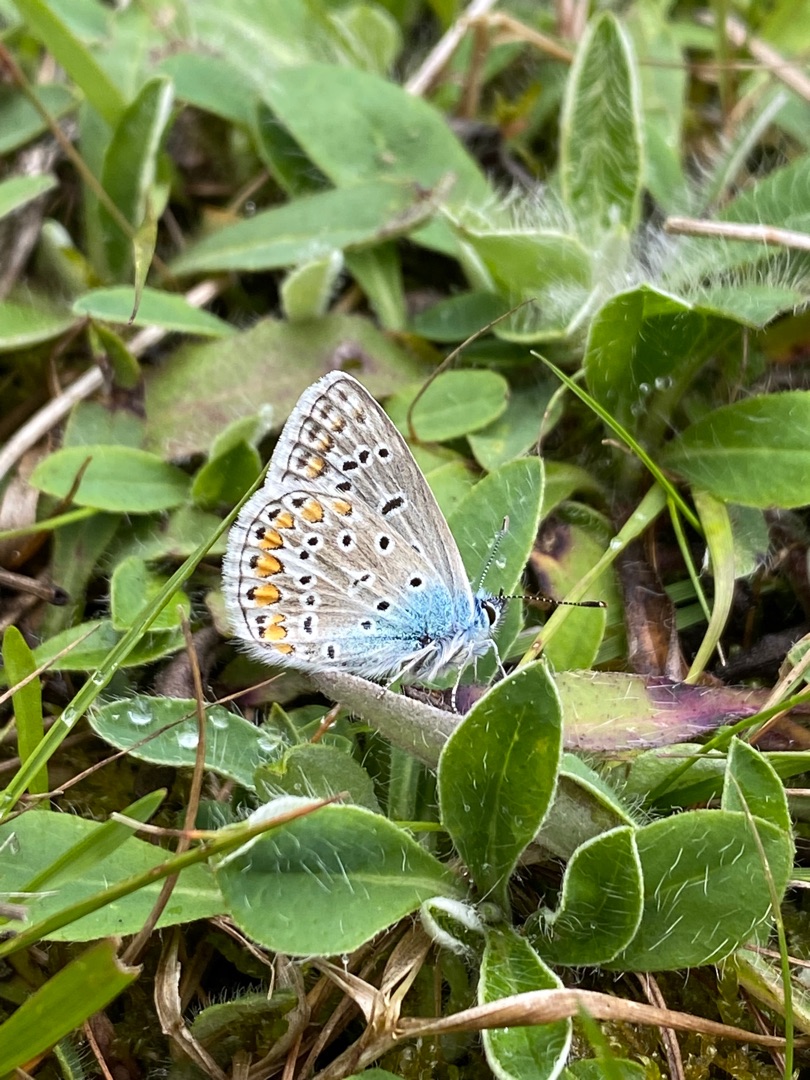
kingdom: Animalia
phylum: Arthropoda
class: Insecta
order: Lepidoptera
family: Lycaenidae
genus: Polyommatus
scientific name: Polyommatus icarus
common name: Almindelig blåfugl
